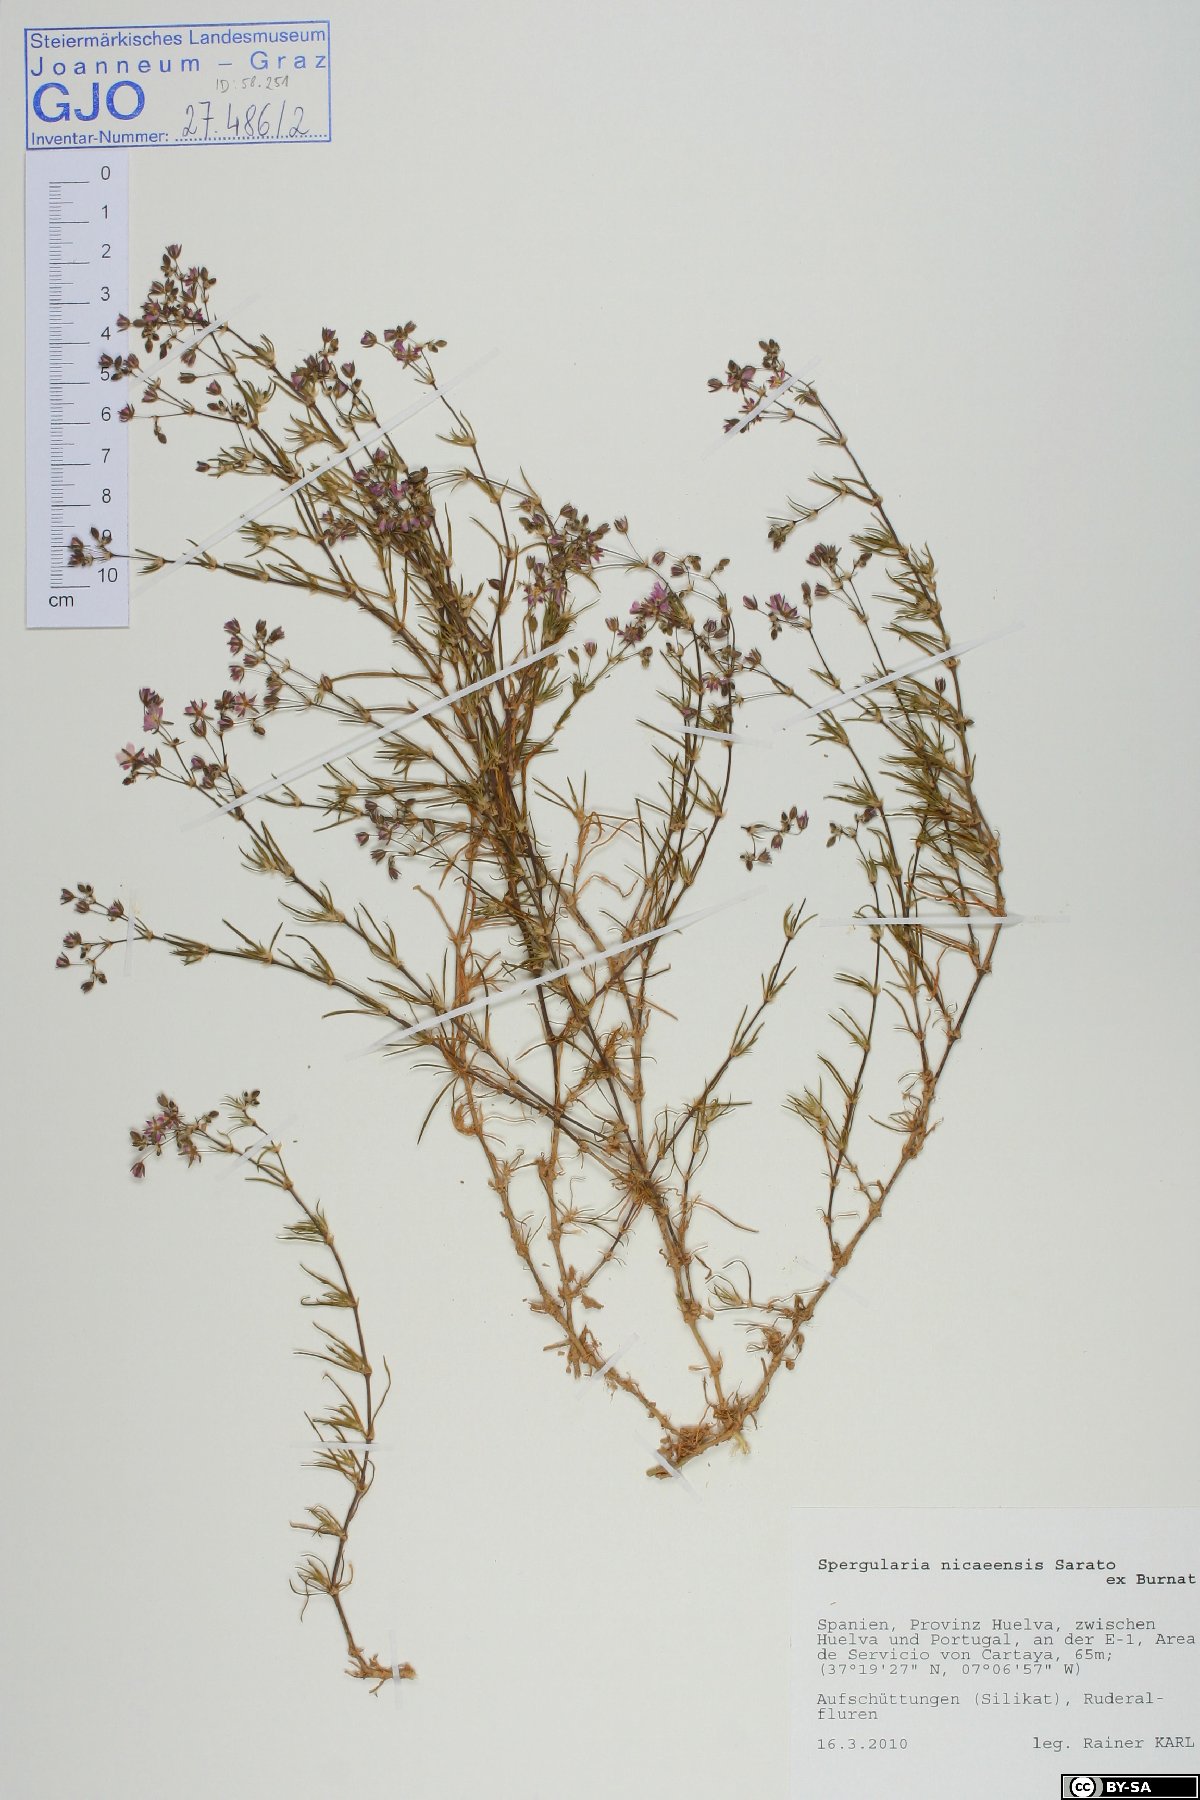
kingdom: Plantae
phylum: Tracheophyta
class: Magnoliopsida
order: Caryophyllales
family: Caryophyllaceae
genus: Spergularia
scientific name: Spergularia nicaeensis
